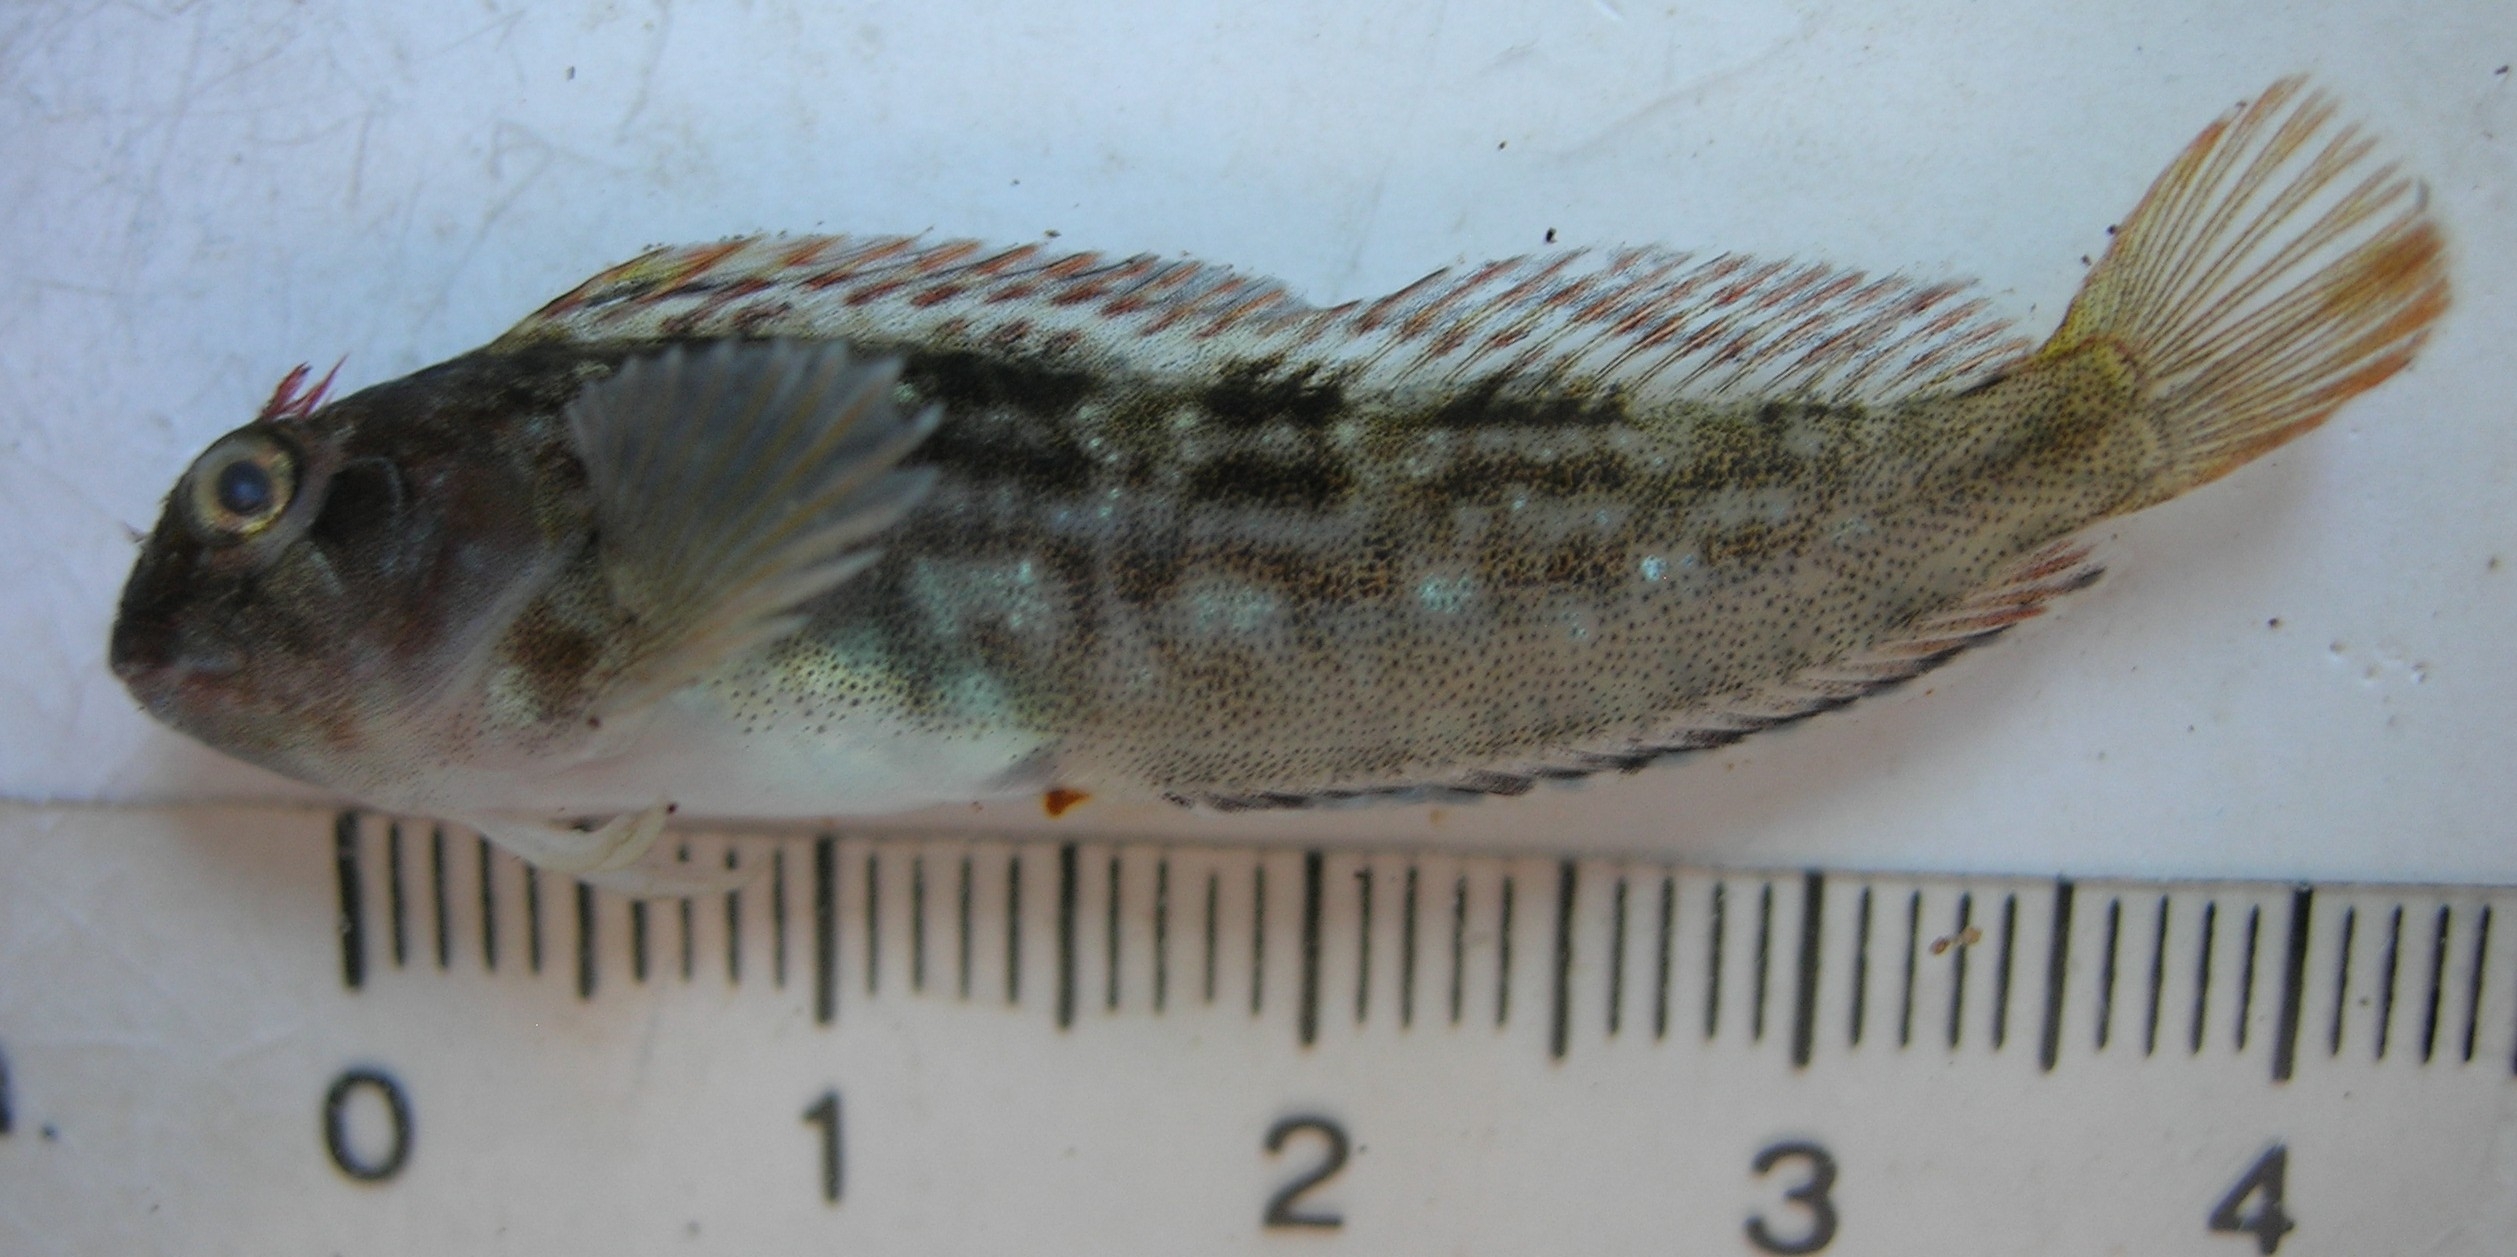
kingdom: Animalia
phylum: Chordata
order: Perciformes
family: Blenniidae
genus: Parablennius
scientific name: Parablennius cornutus
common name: Horned blenny
